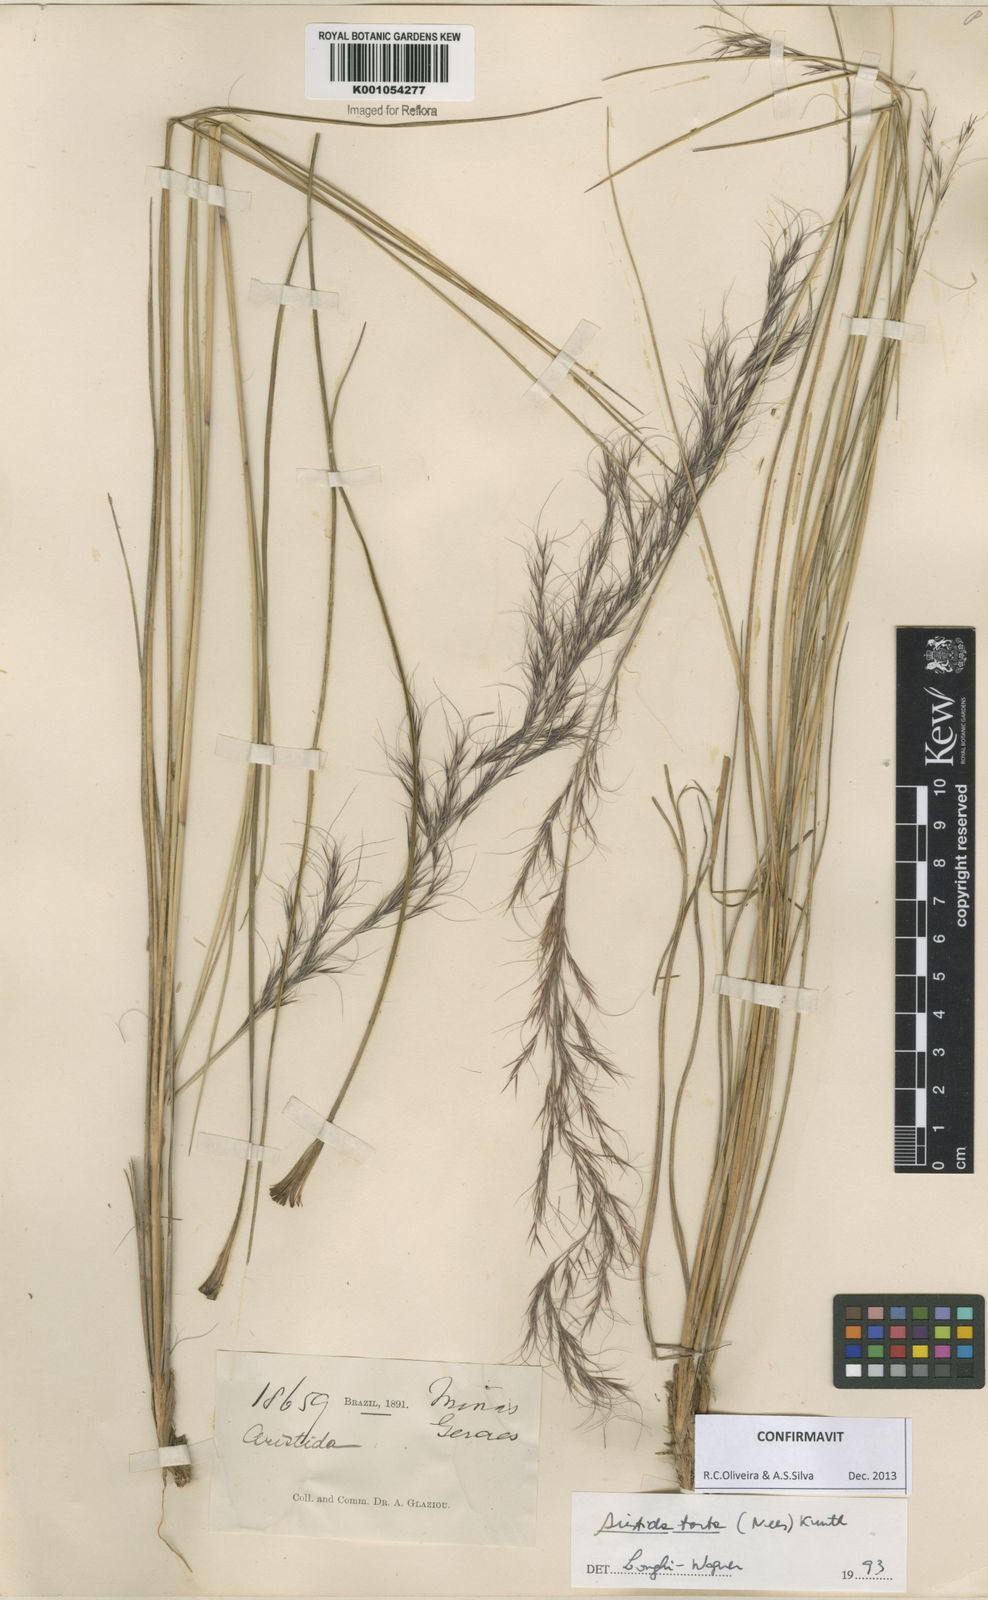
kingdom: Plantae
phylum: Tracheophyta
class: Liliopsida
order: Poales
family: Poaceae
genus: Aristida
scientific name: Aristida torta
